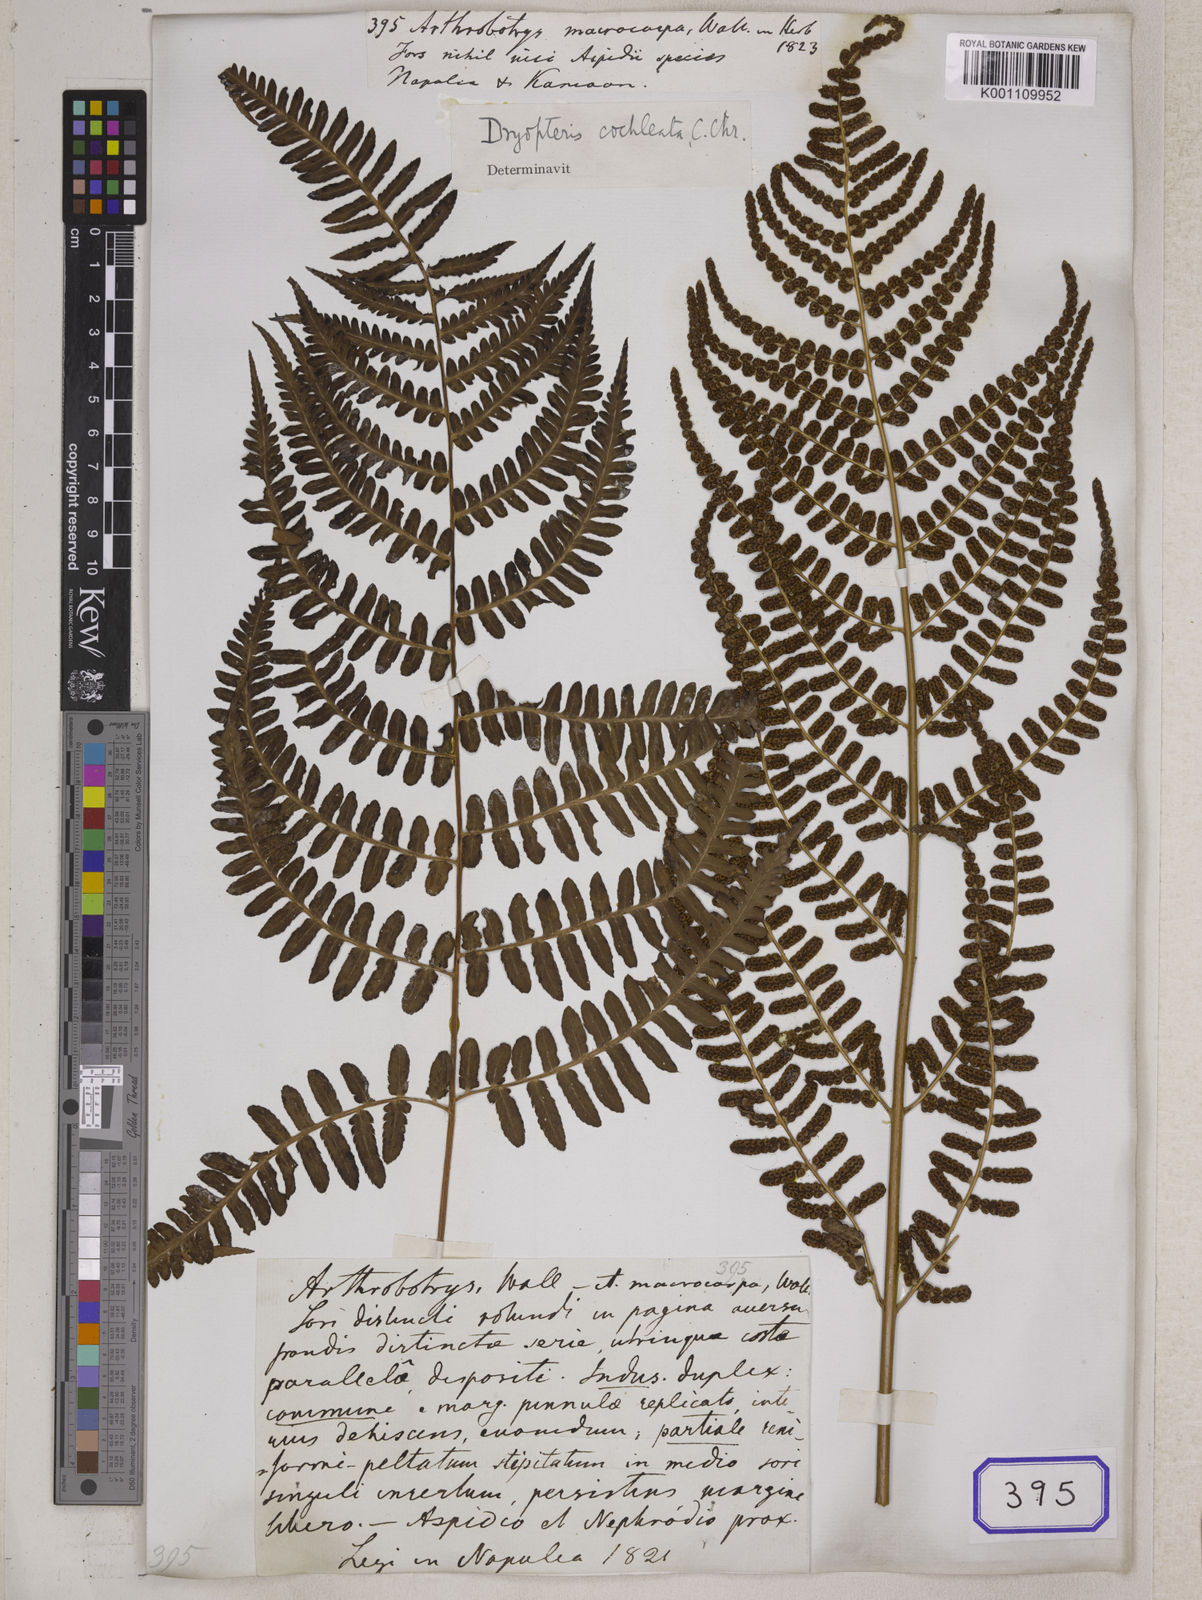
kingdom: Plantae
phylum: Tracheophyta
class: Polypodiopsida
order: Polypodiales
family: Dryopteridaceae
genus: Dryopteris
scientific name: Dryopteris cochleata
